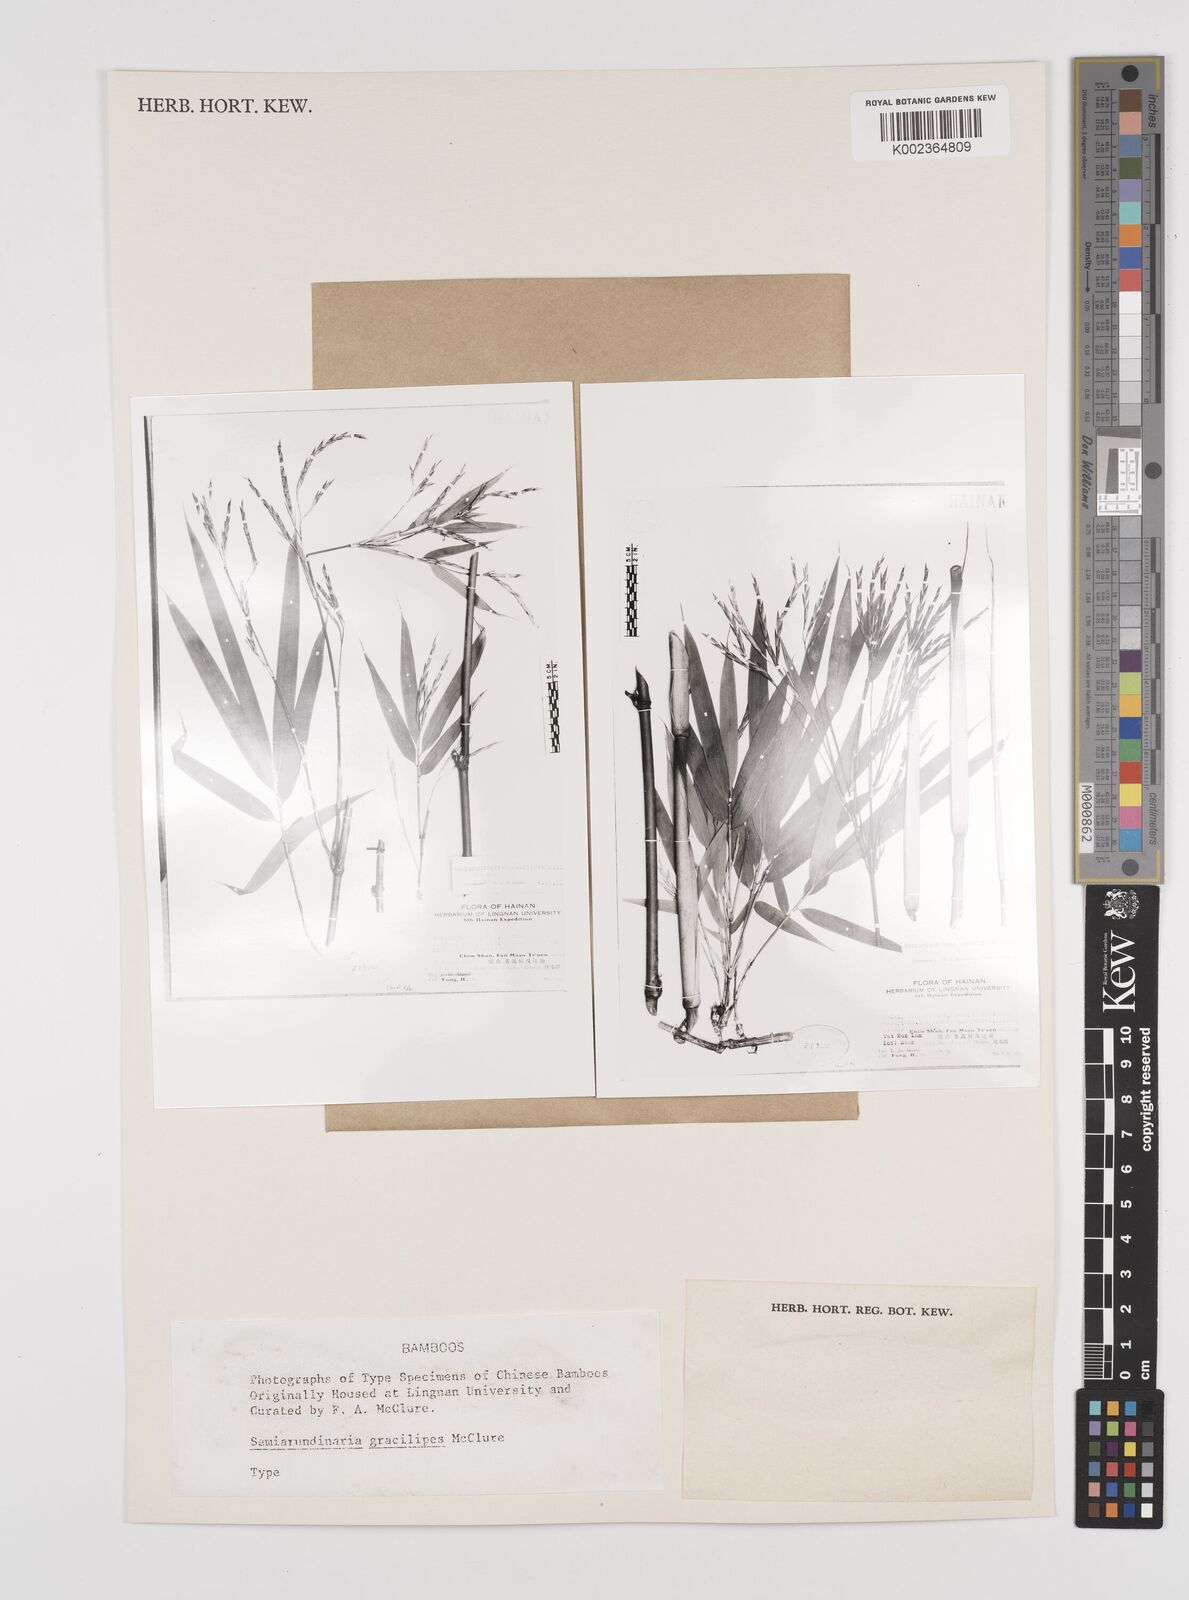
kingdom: Plantae
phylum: Tracheophyta
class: Liliopsida
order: Poales
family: Poaceae
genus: Semiarundinaria
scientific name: Semiarundinaria fastuosa
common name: Narihira bamboo
